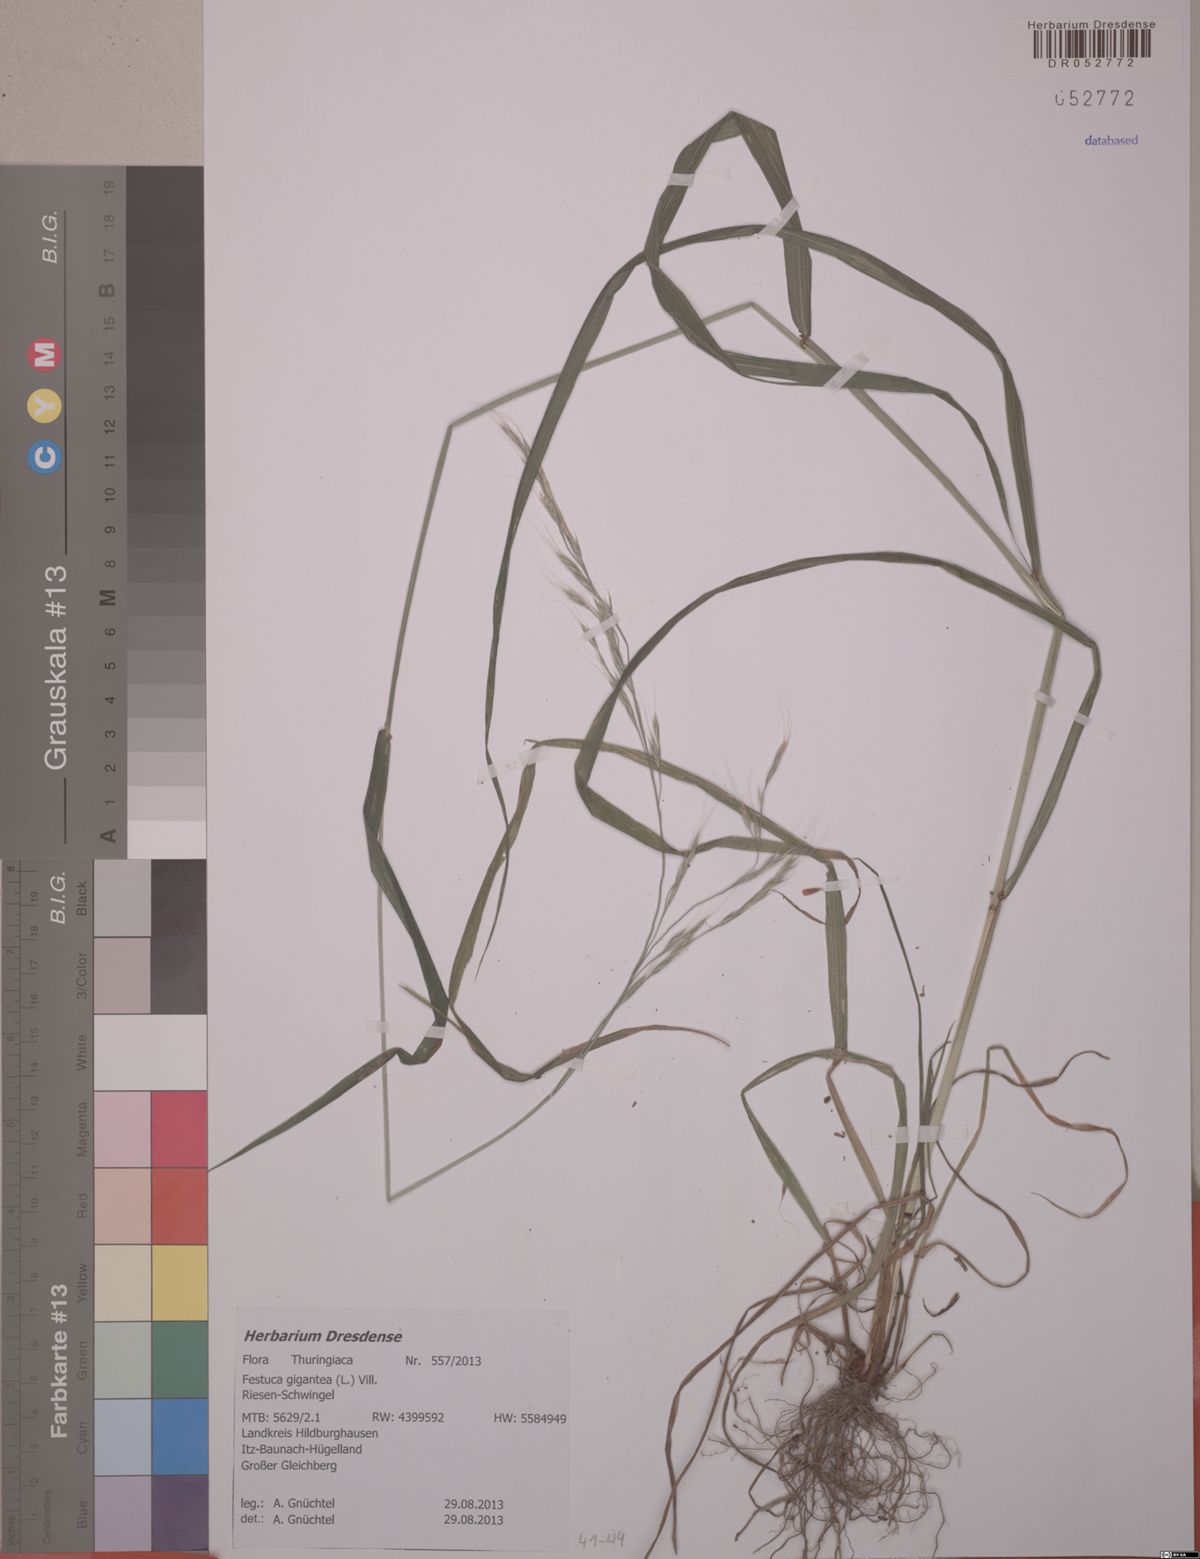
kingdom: Plantae
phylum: Tracheophyta
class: Liliopsida
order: Poales
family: Poaceae
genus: Lolium
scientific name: Lolium giganteum
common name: Giant fescue
